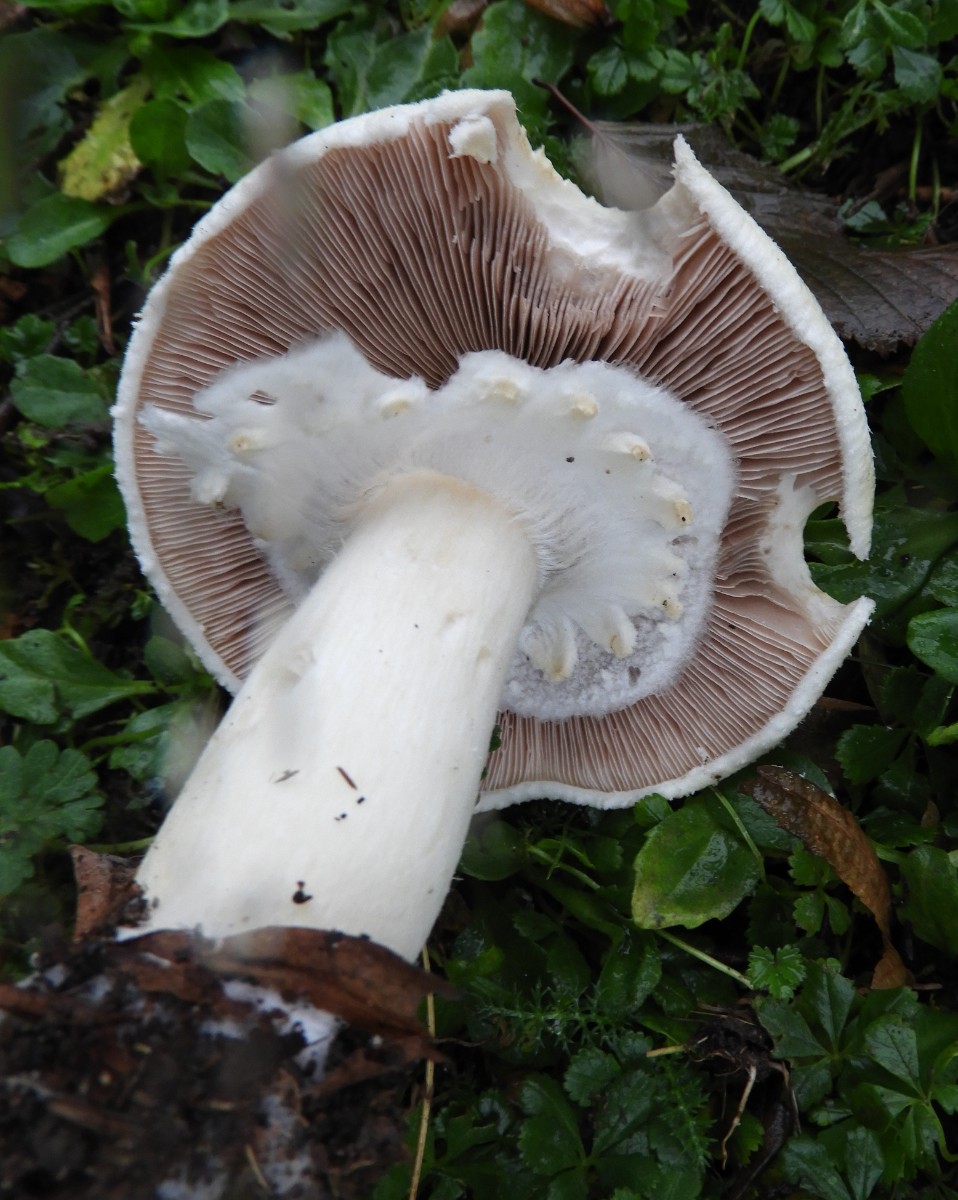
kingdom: Fungi
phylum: Basidiomycota
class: Agaricomycetes
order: Agaricales
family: Agaricaceae
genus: Agaricus
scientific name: Agaricus arvensis
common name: ager-champignon
